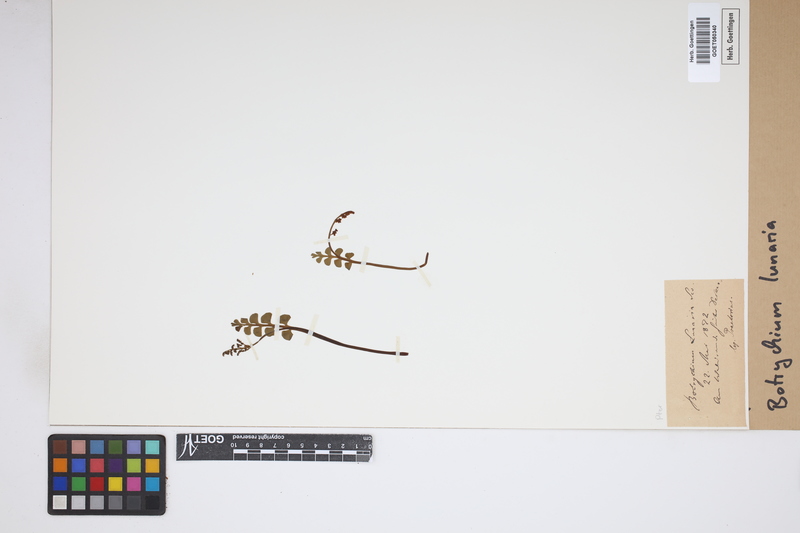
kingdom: Plantae
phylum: Tracheophyta
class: Polypodiopsida
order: Ophioglossales
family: Ophioglossaceae
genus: Botrychium
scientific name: Botrychium lunaria
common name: Moonwort
